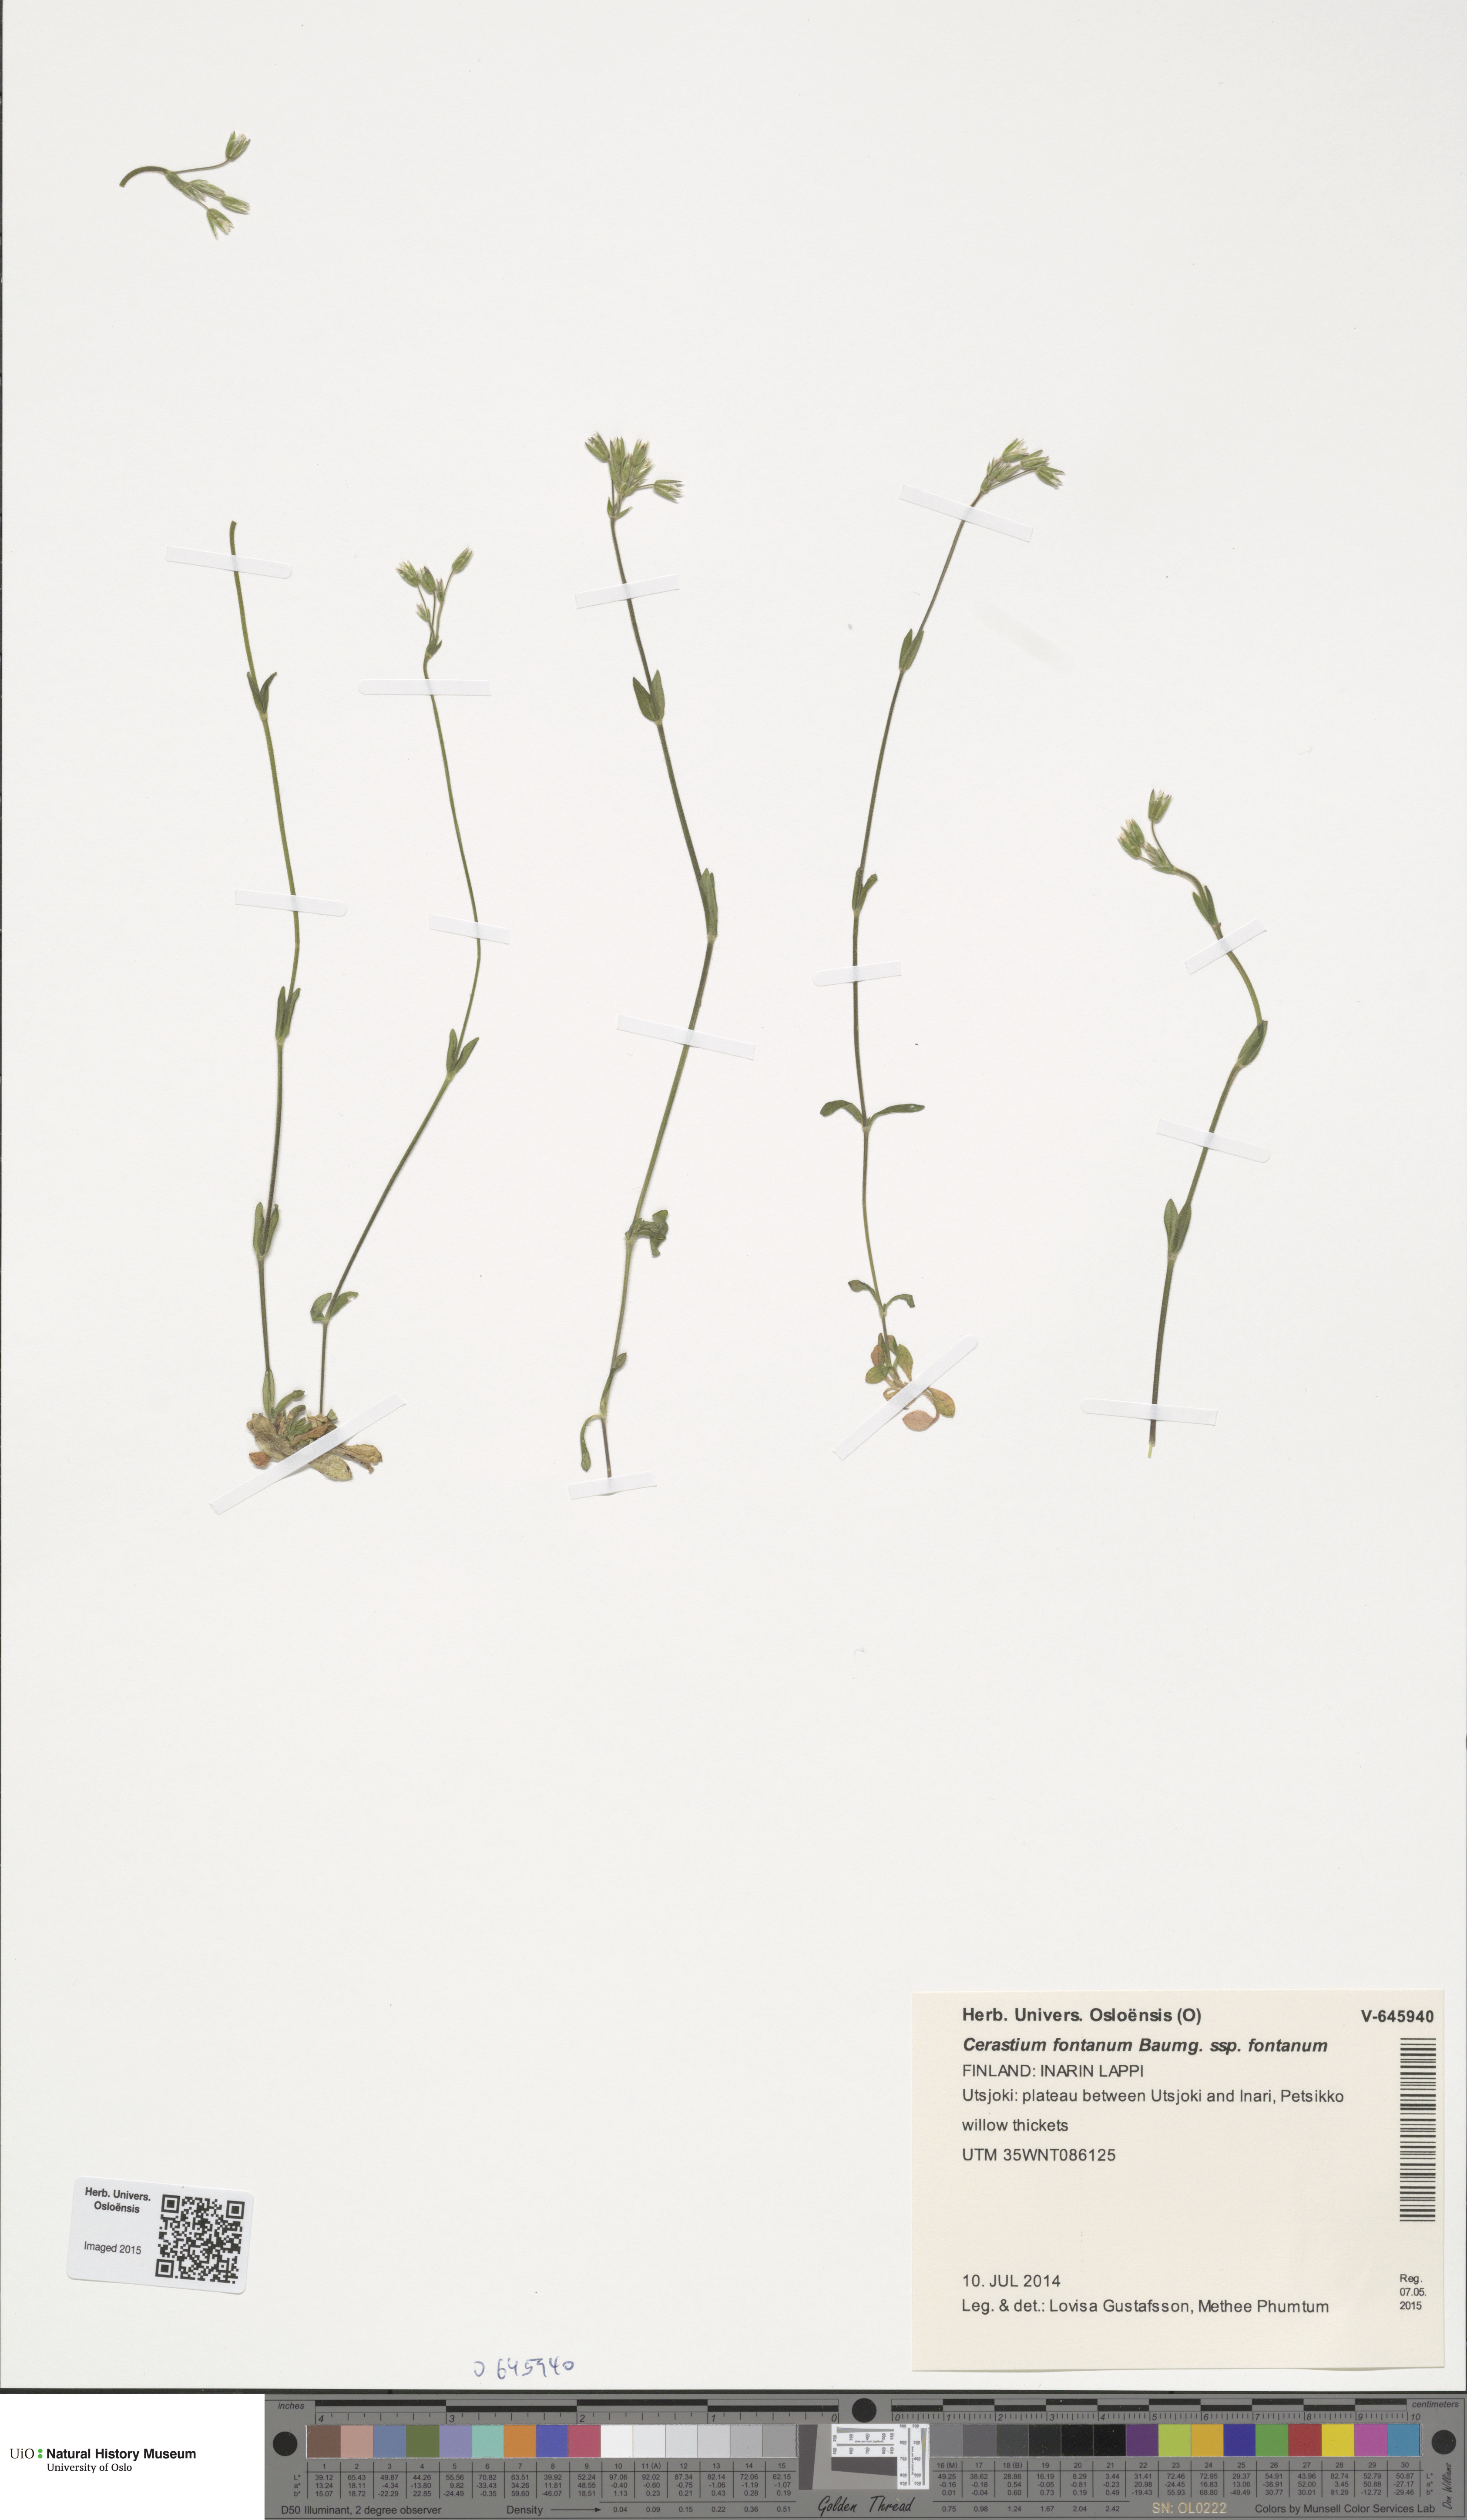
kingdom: Plantae
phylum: Tracheophyta
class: Magnoliopsida
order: Caryophyllales
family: Caryophyllaceae
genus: Cerastium
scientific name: Cerastium fontanum
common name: Common mouse-ear
